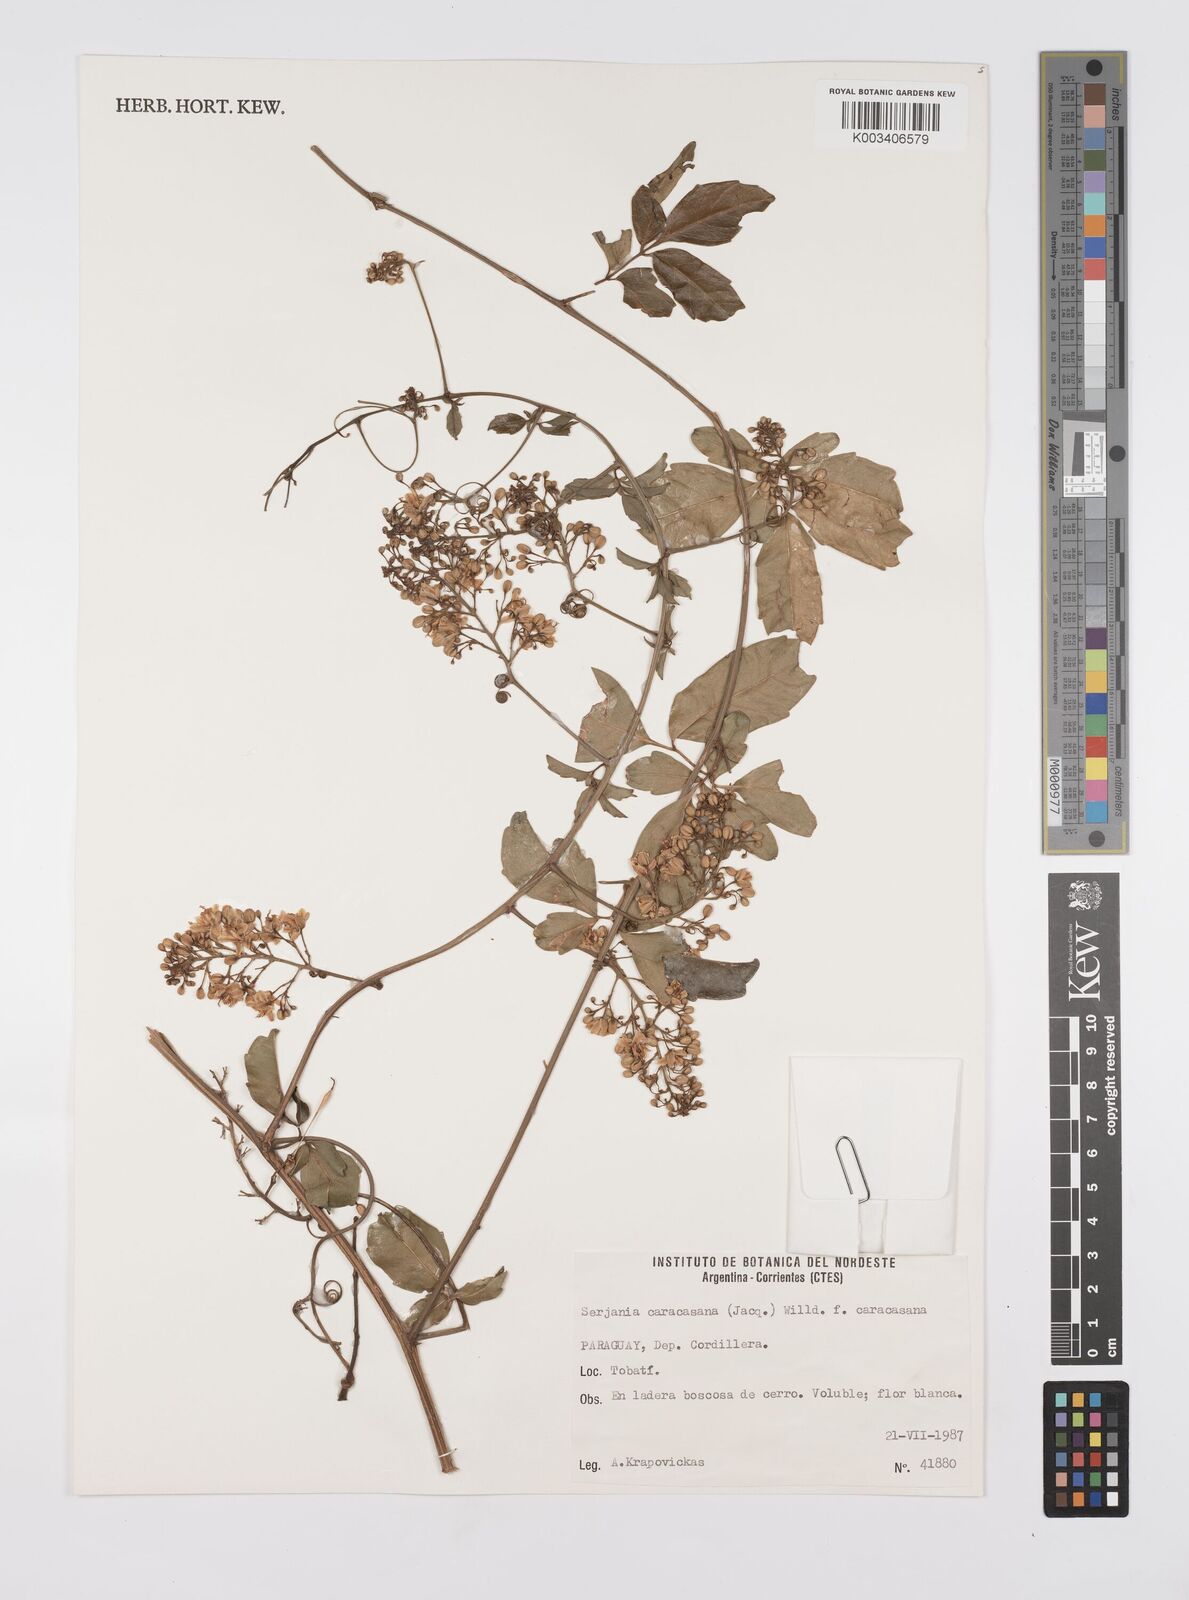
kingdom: Plantae
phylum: Tracheophyta
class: Magnoliopsida
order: Sapindales
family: Sapindaceae
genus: Serjania
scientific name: Serjania caracasana
